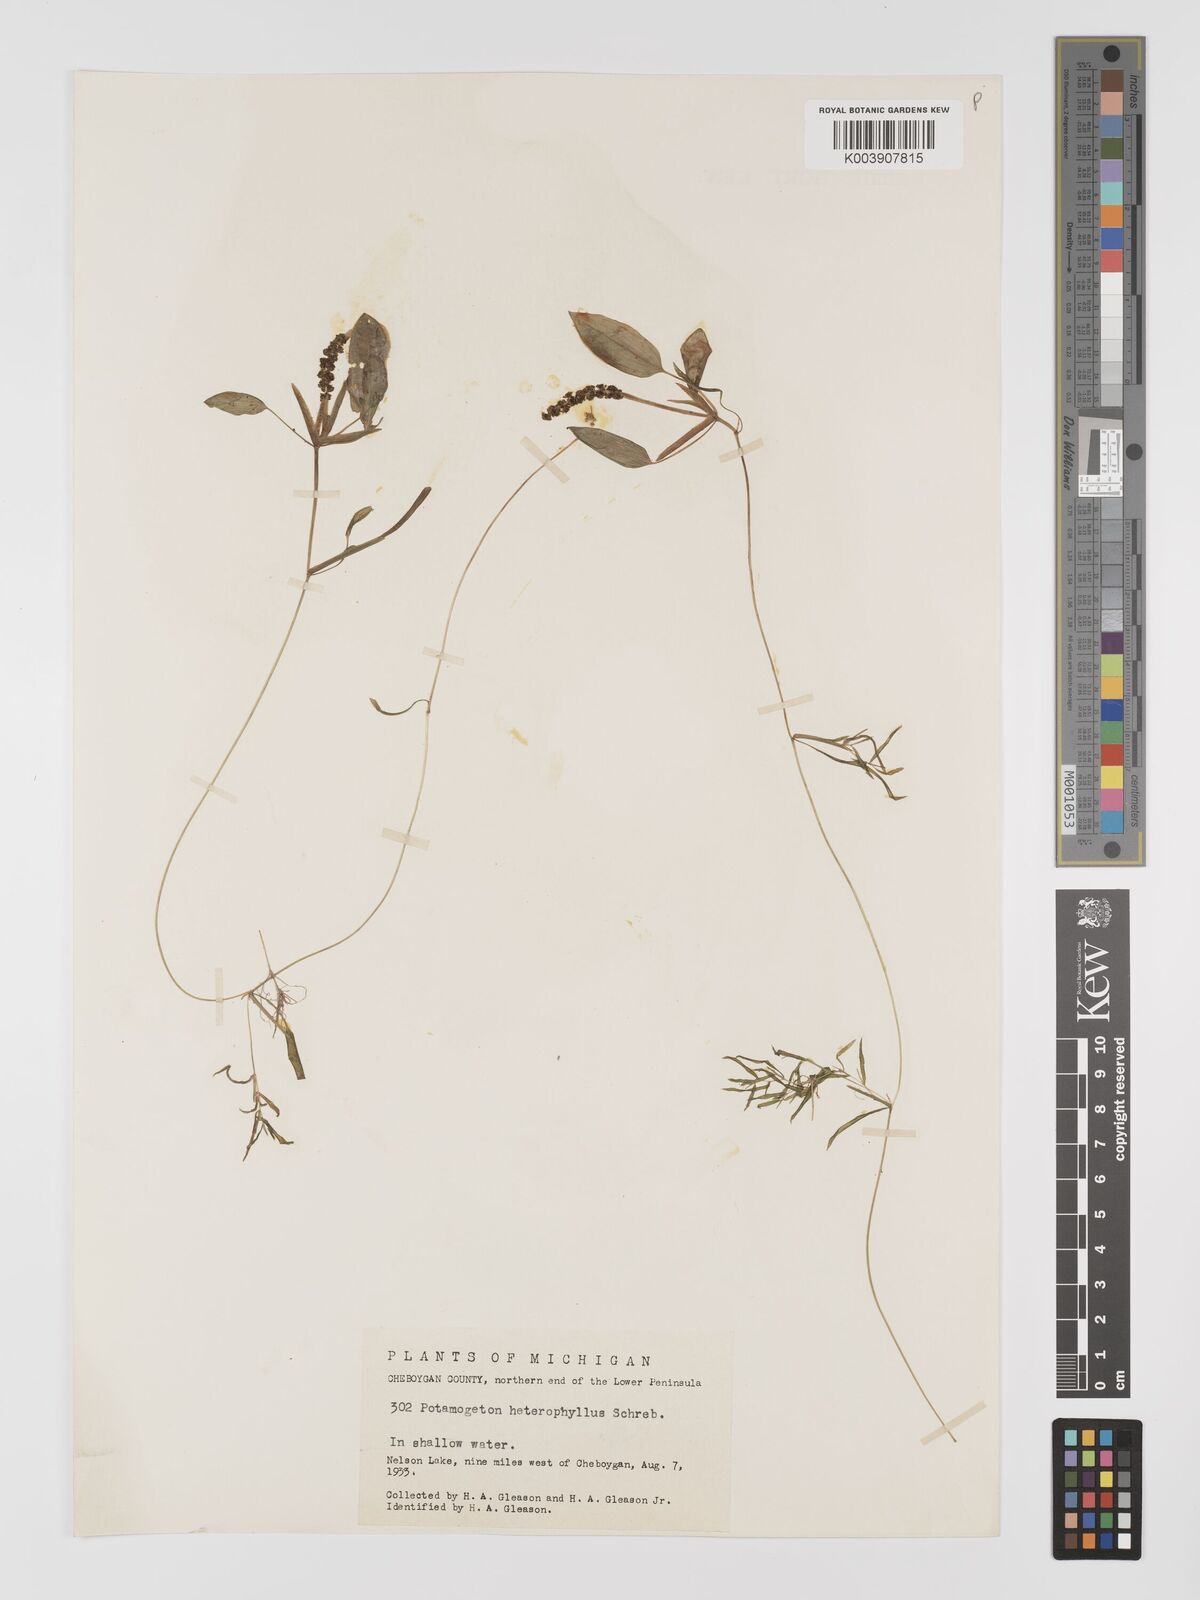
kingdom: Plantae
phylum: Tracheophyta
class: Liliopsida
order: Alismatales
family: Potamogetonaceae
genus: Potamogeton
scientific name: Potamogeton gramineus
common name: Various-leaved pondweed
